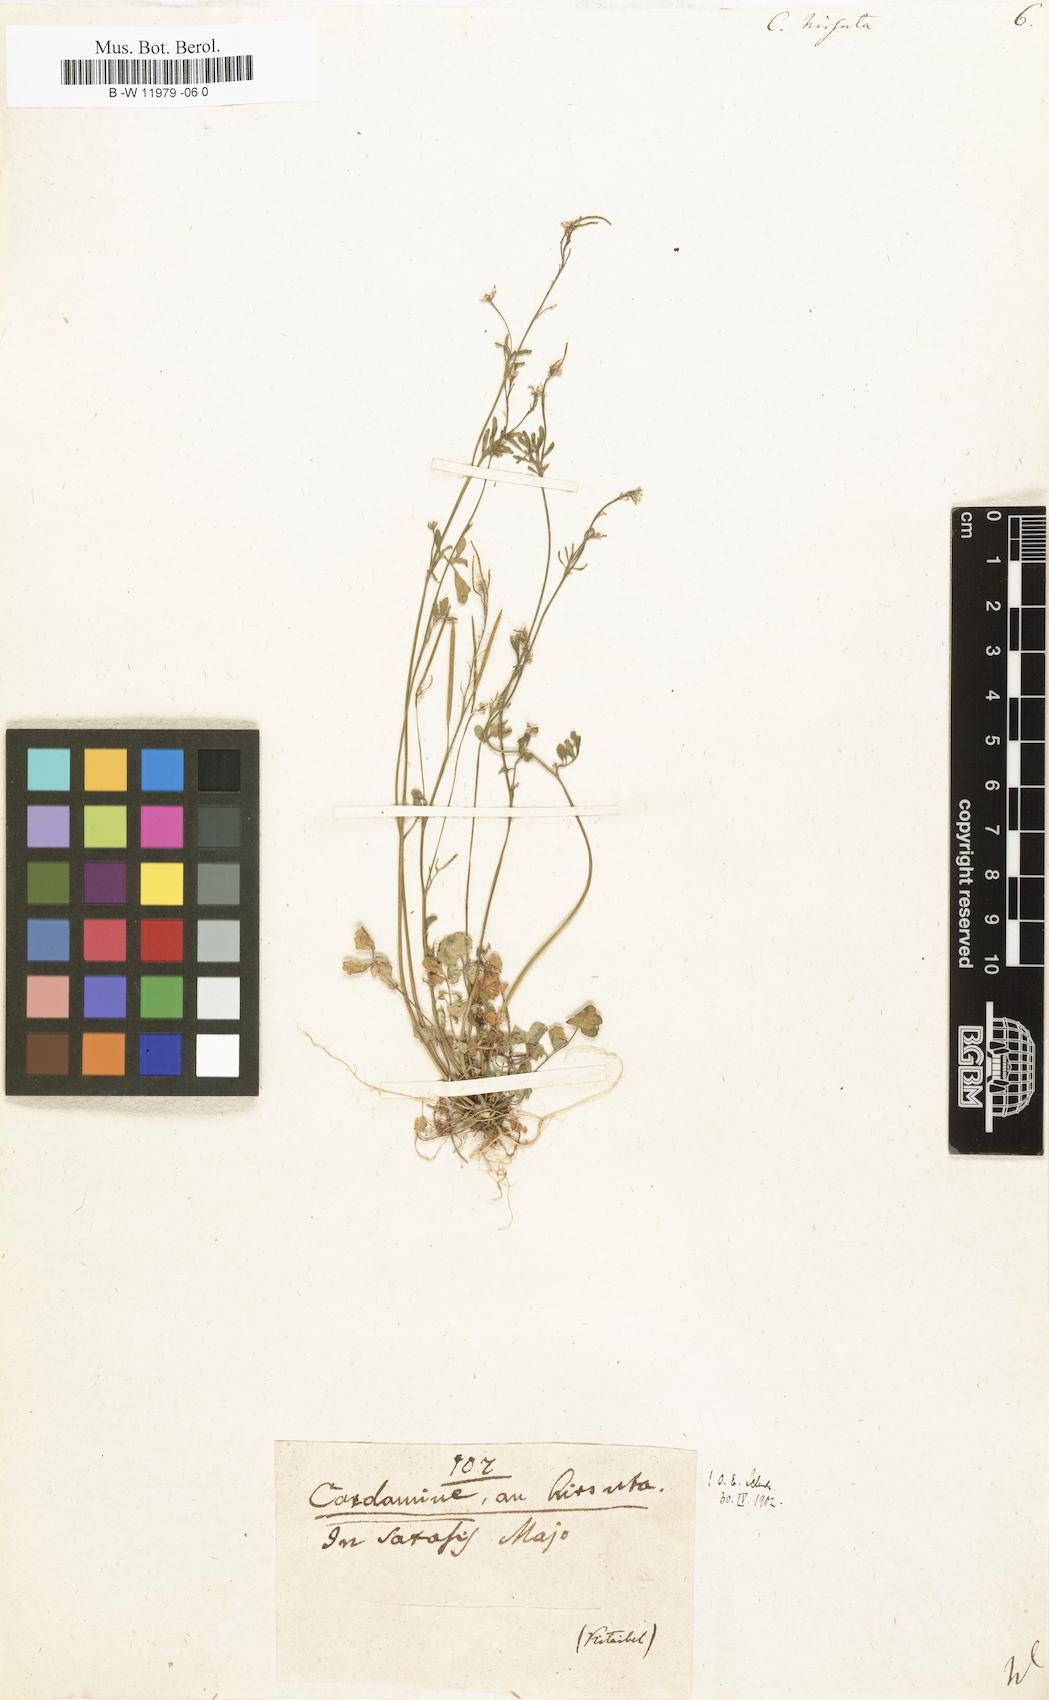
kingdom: Plantae
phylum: Tracheophyta
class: Magnoliopsida
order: Brassicales
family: Brassicaceae
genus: Cardamine
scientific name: Cardamine hirsuta
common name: Hairy bittercress
